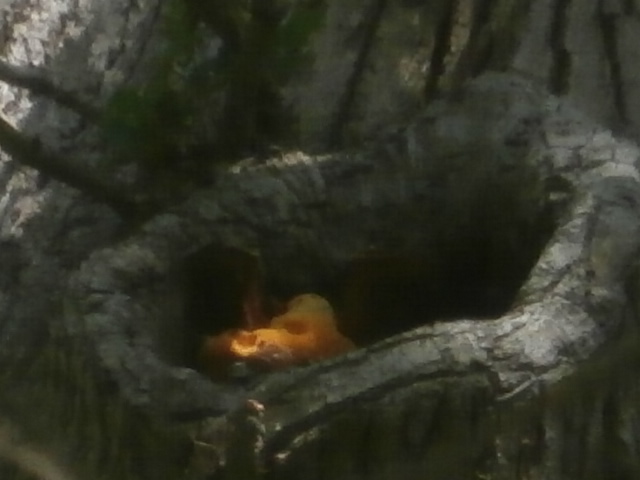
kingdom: Fungi
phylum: Basidiomycota
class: Agaricomycetes
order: Polyporales
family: Phanerochaetaceae
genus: Hapalopilus
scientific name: Hapalopilus croceus
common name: safrangul pragtporesvamp
